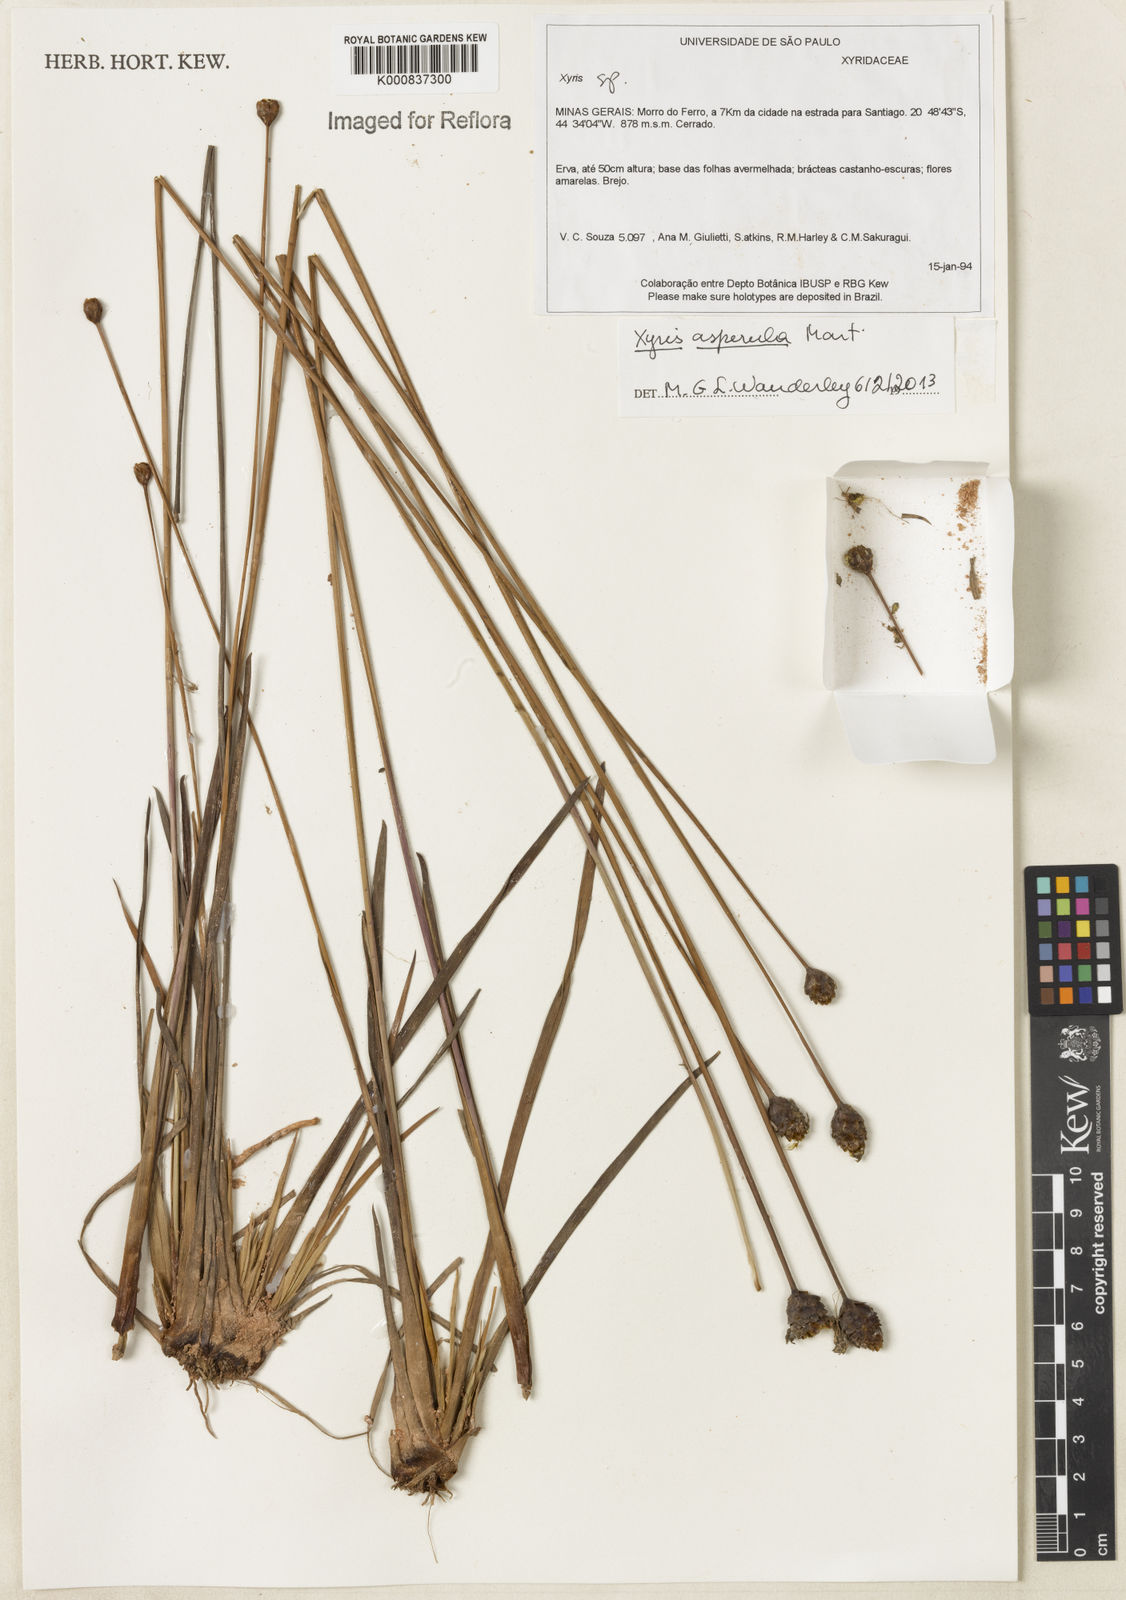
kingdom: Plantae
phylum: Tracheophyta
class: Liliopsida
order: Poales
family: Xyridaceae
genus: Xyris
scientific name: Xyris asperula
